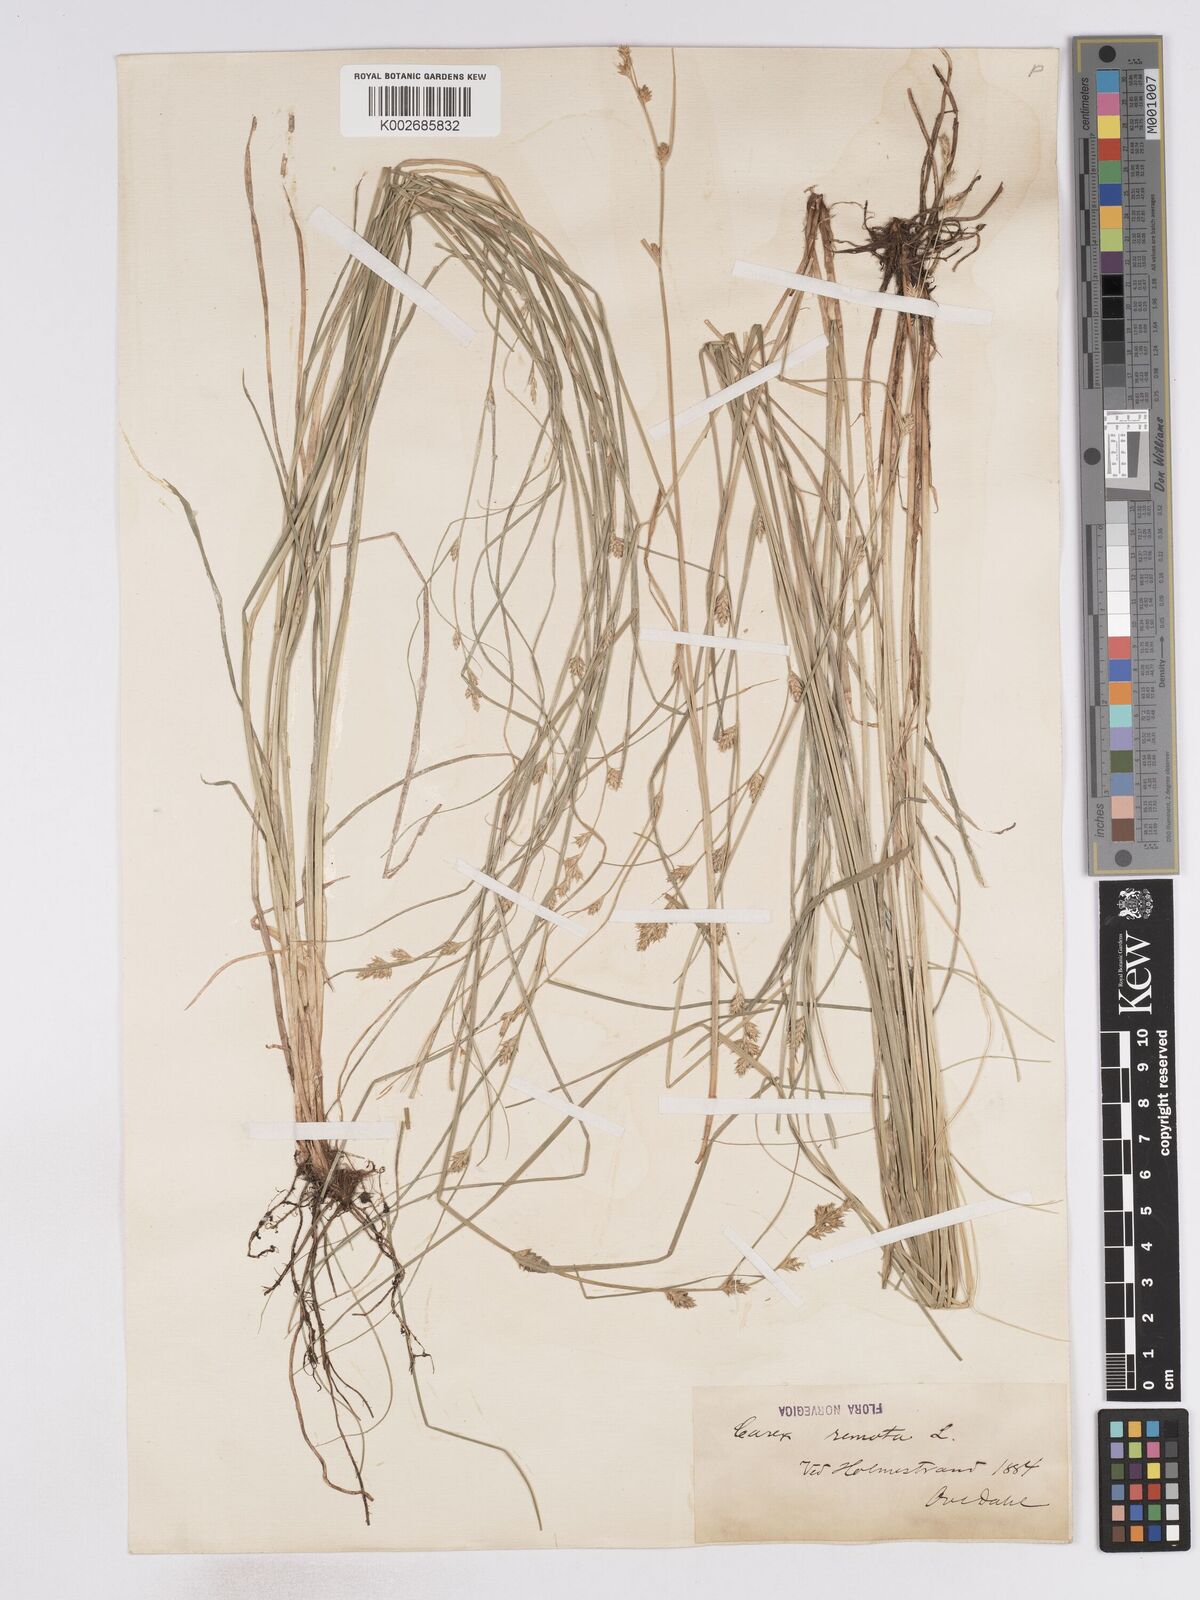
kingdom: Plantae
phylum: Tracheophyta
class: Liliopsida
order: Poales
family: Cyperaceae
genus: Carex
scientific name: Carex remota
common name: Remote sedge
